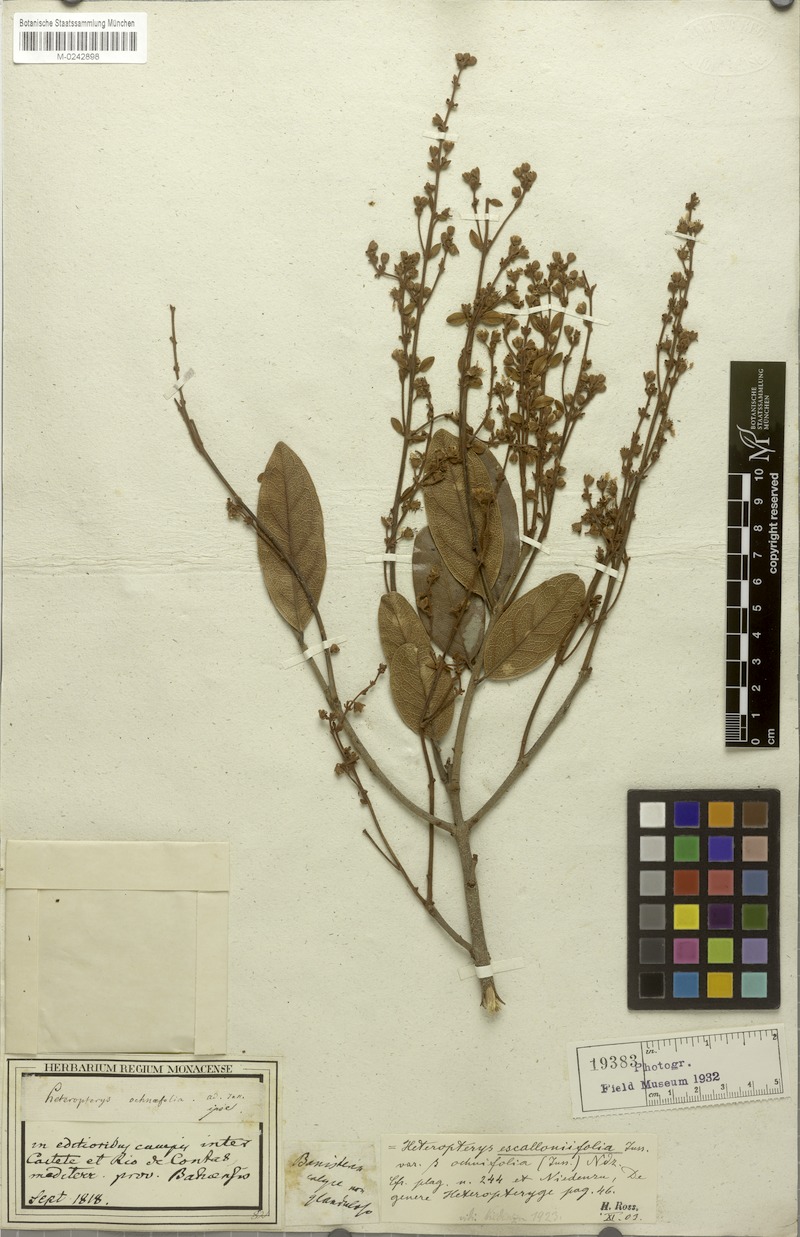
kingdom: Plantae
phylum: Tracheophyta
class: Magnoliopsida
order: Malpighiales
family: Malpighiaceae
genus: Heteropterys
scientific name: Heteropterys escalloniifolia
